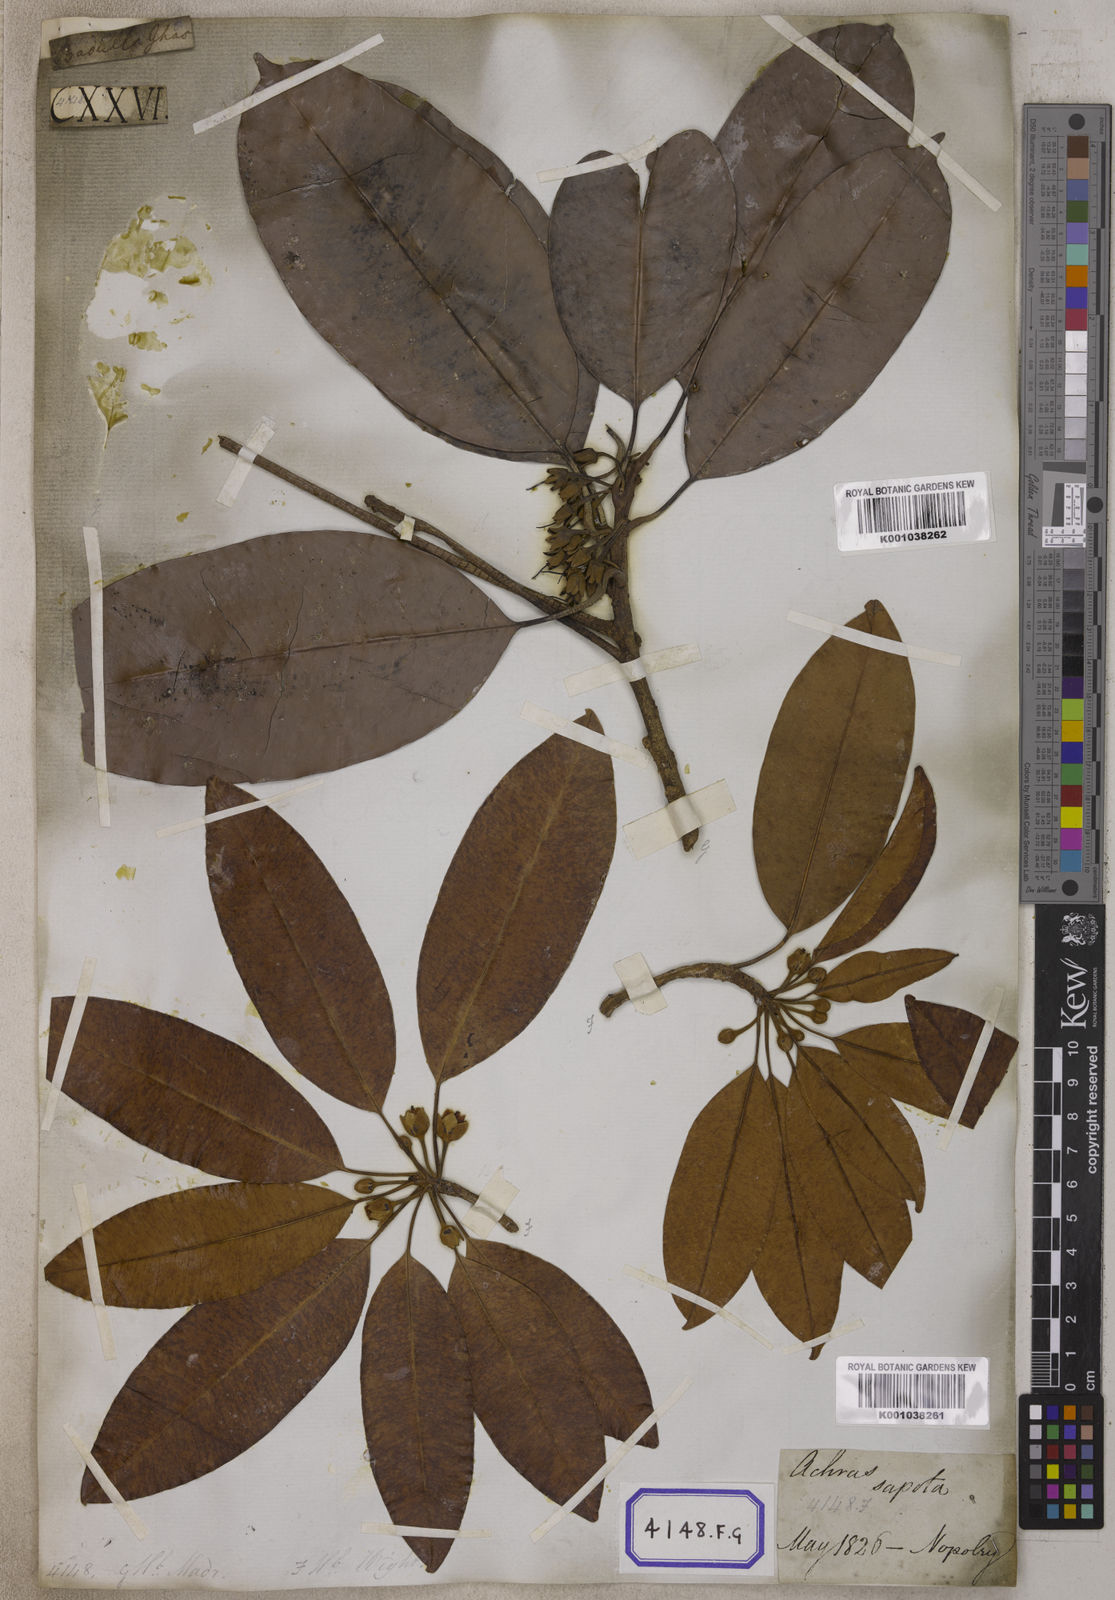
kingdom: Plantae
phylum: Tracheophyta
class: Magnoliopsida
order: Ericales
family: Sapotaceae
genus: Mimusops
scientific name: Mimusops
